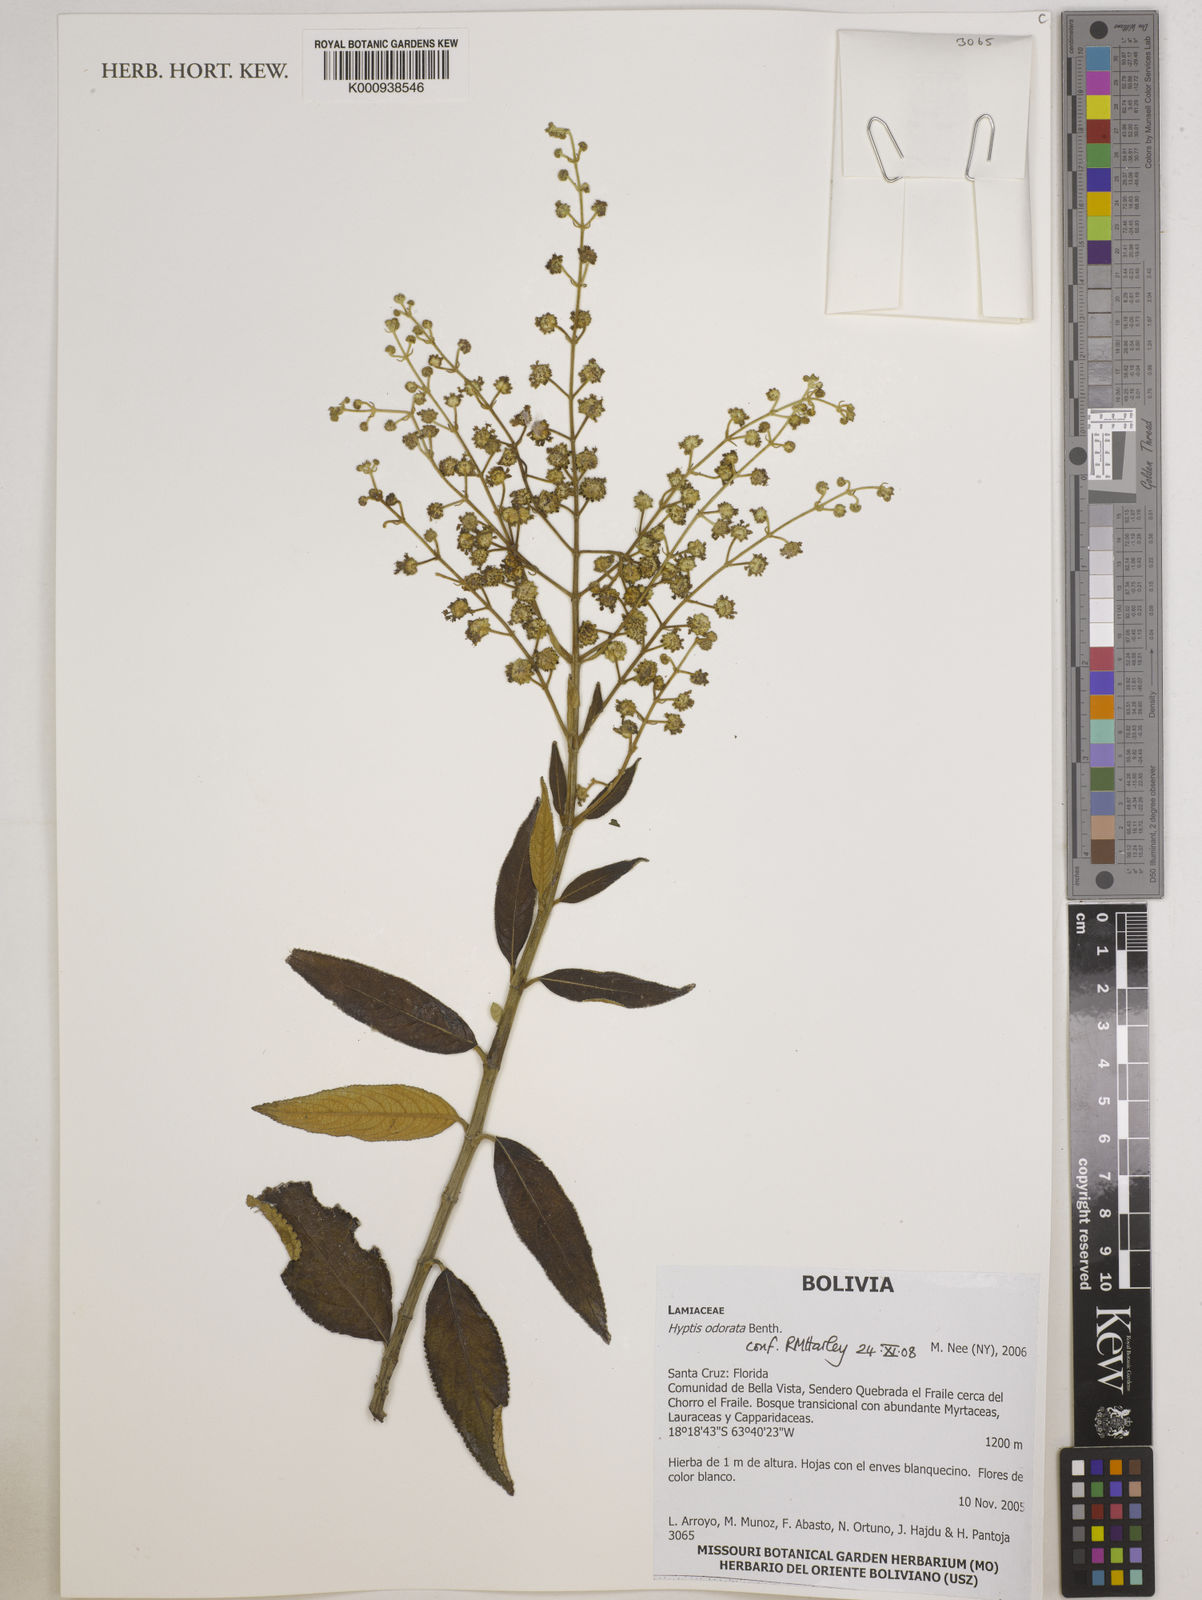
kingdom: Plantae
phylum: Tracheophyta
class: Magnoliopsida
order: Lamiales
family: Lamiaceae
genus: Hyptis
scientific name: Hyptis odorata
